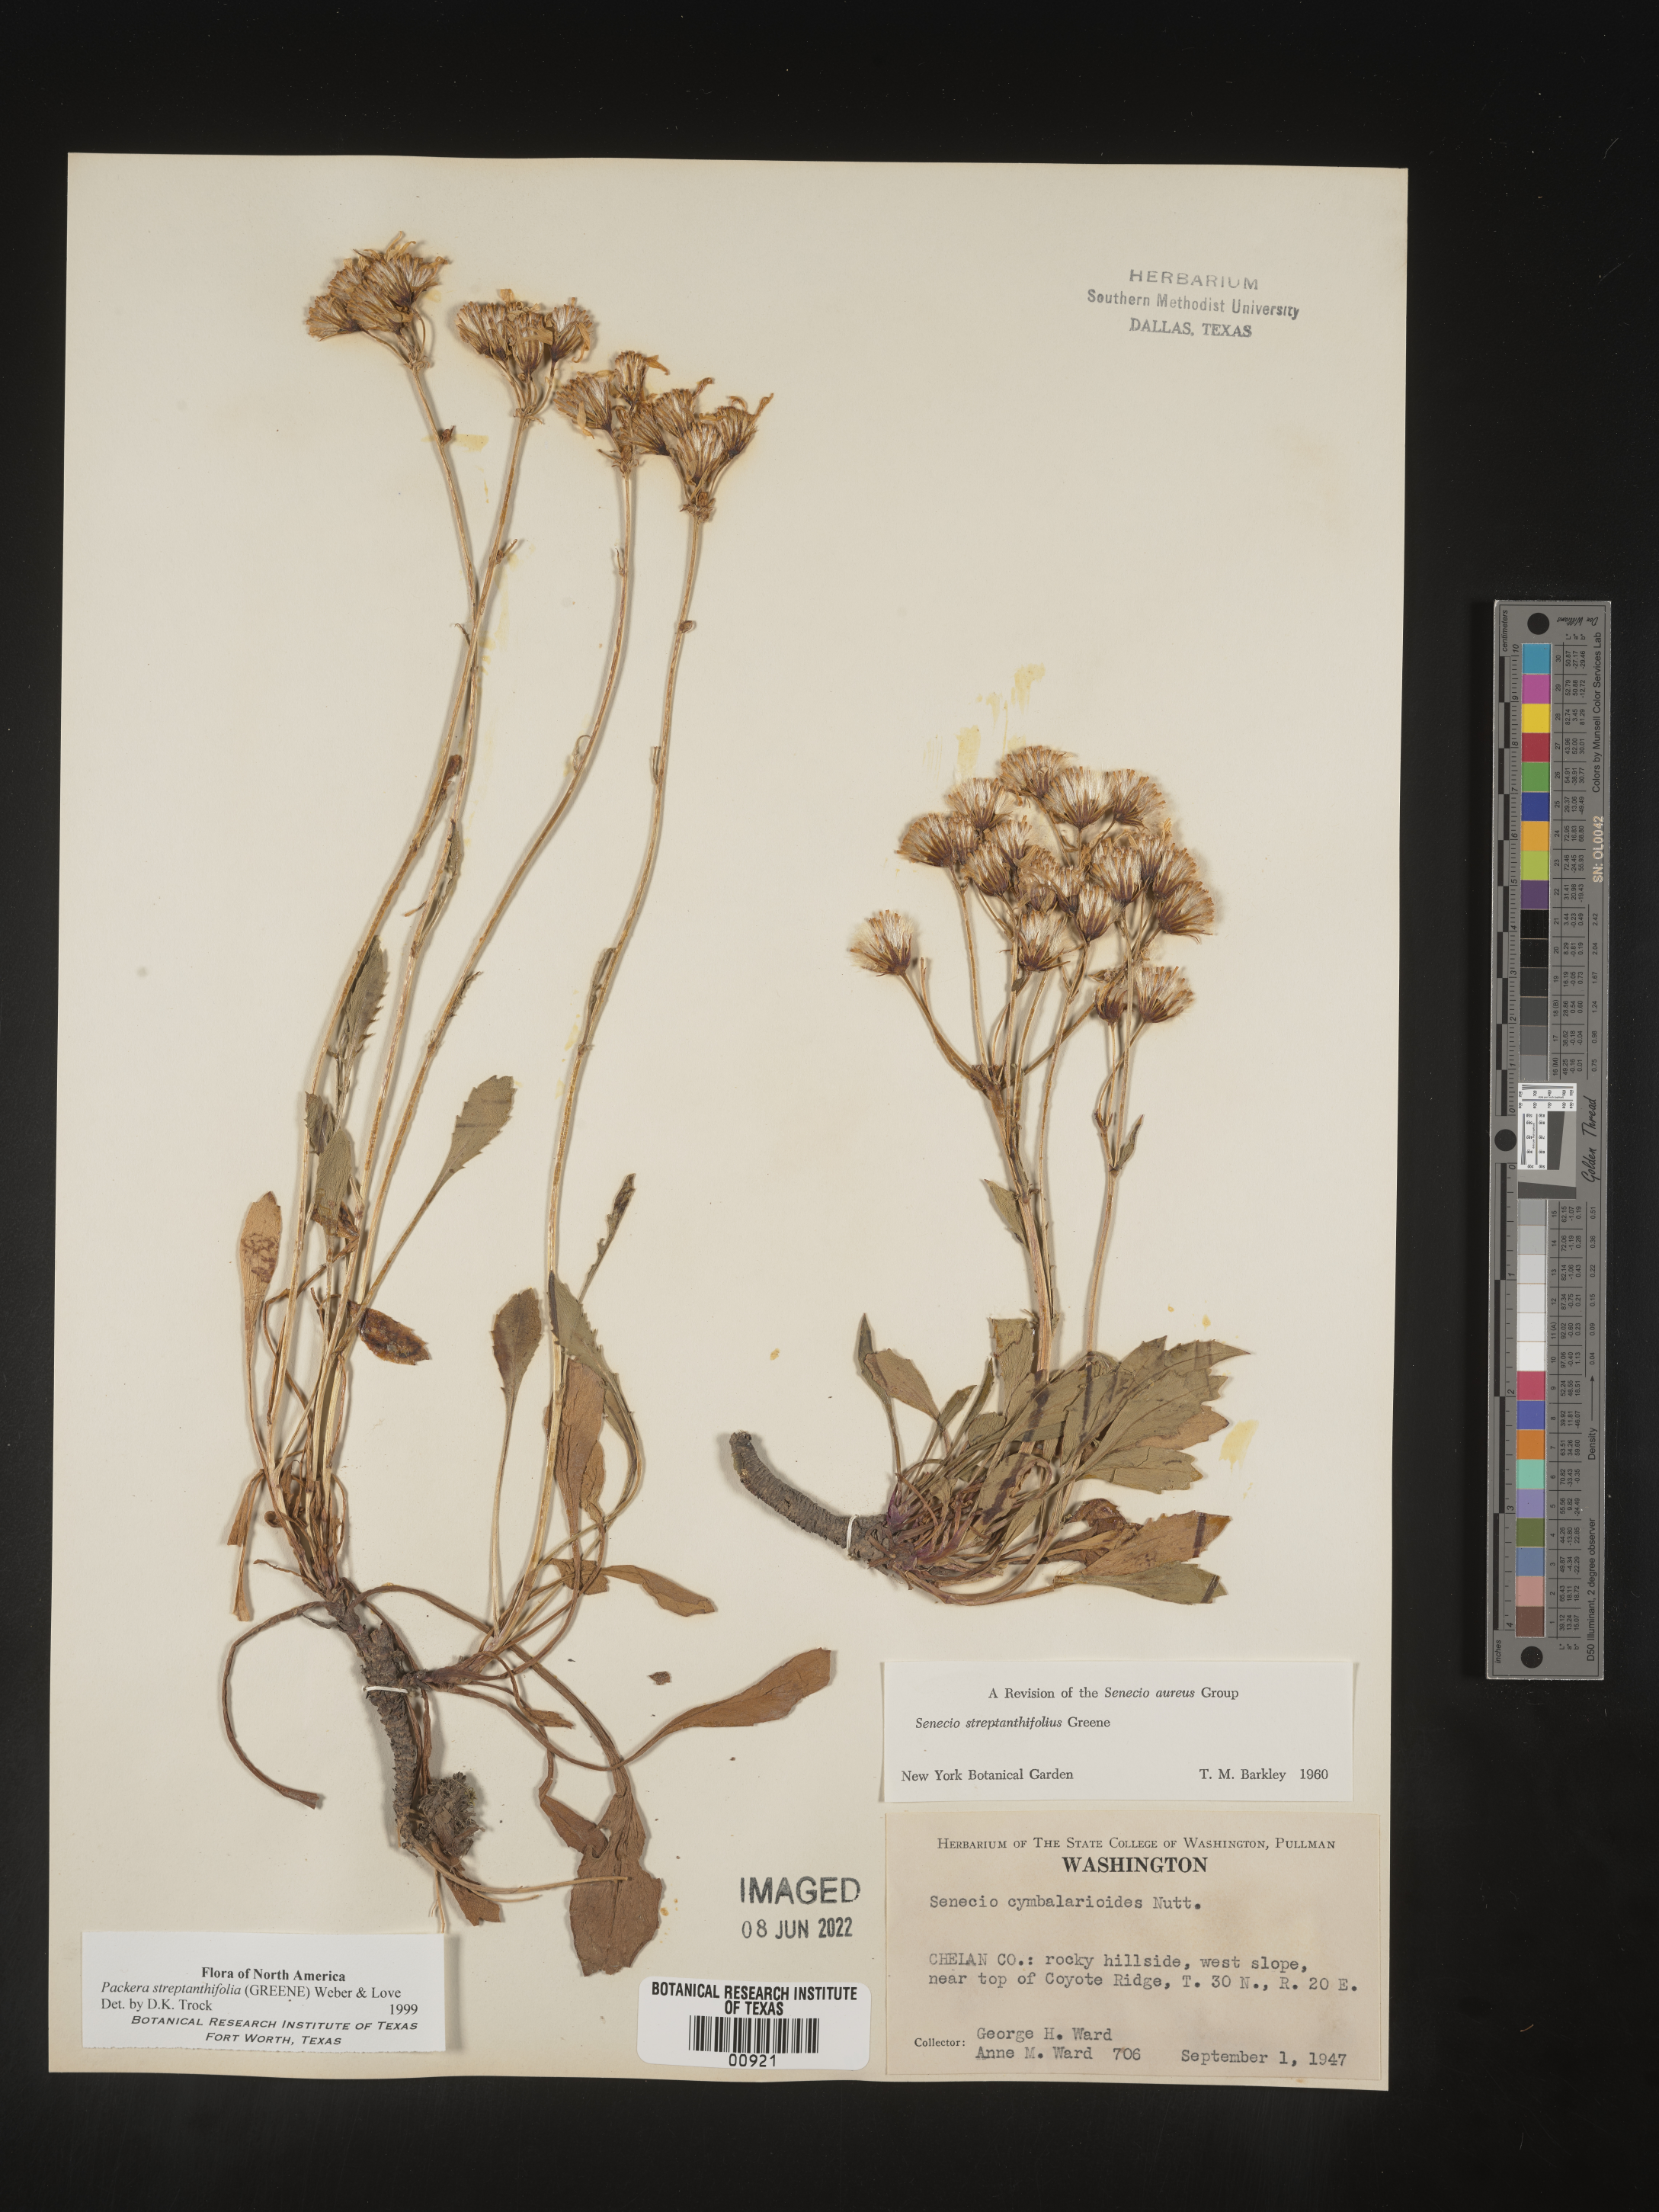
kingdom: Plantae
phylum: Tracheophyta
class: Magnoliopsida
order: Asterales
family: Asteraceae
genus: Packera
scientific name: Packera streptanthifolia
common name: Rocky mountain butterweed
